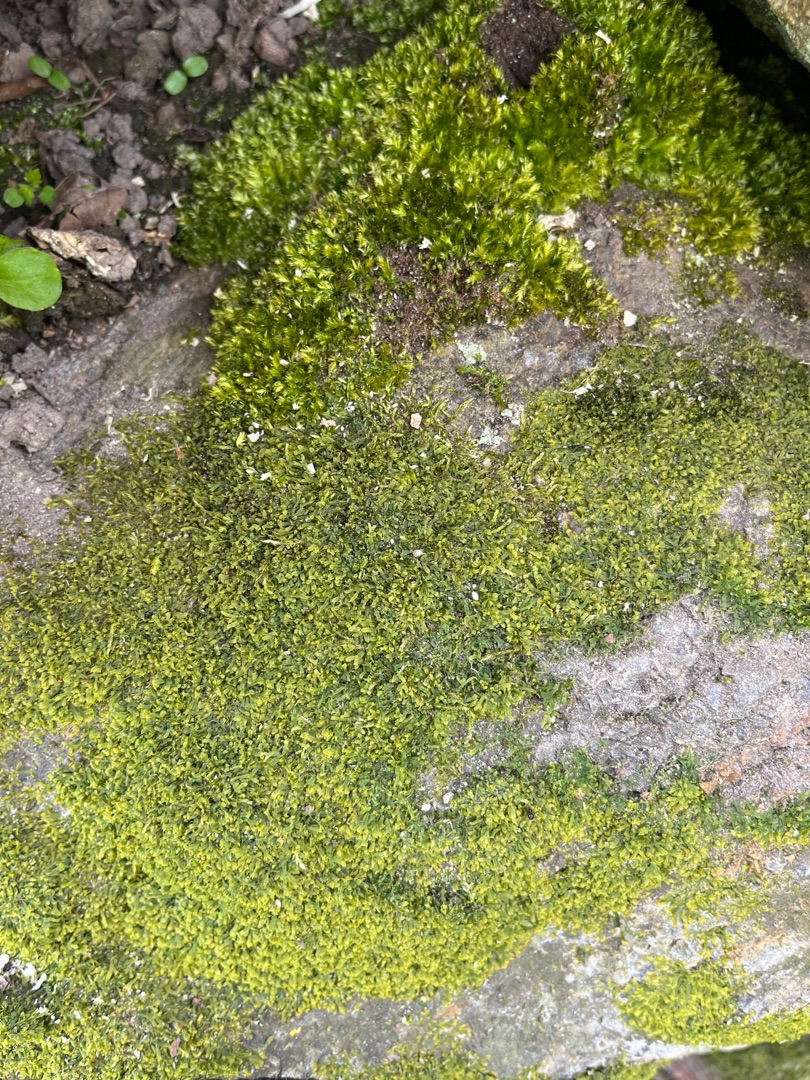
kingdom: Plantae
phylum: Marchantiophyta
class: Jungermanniopsida
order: Metzgeriales
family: Metzgeriaceae
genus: Metzgeria
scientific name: Metzgeria furcata
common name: Almindelig gaffelløv
